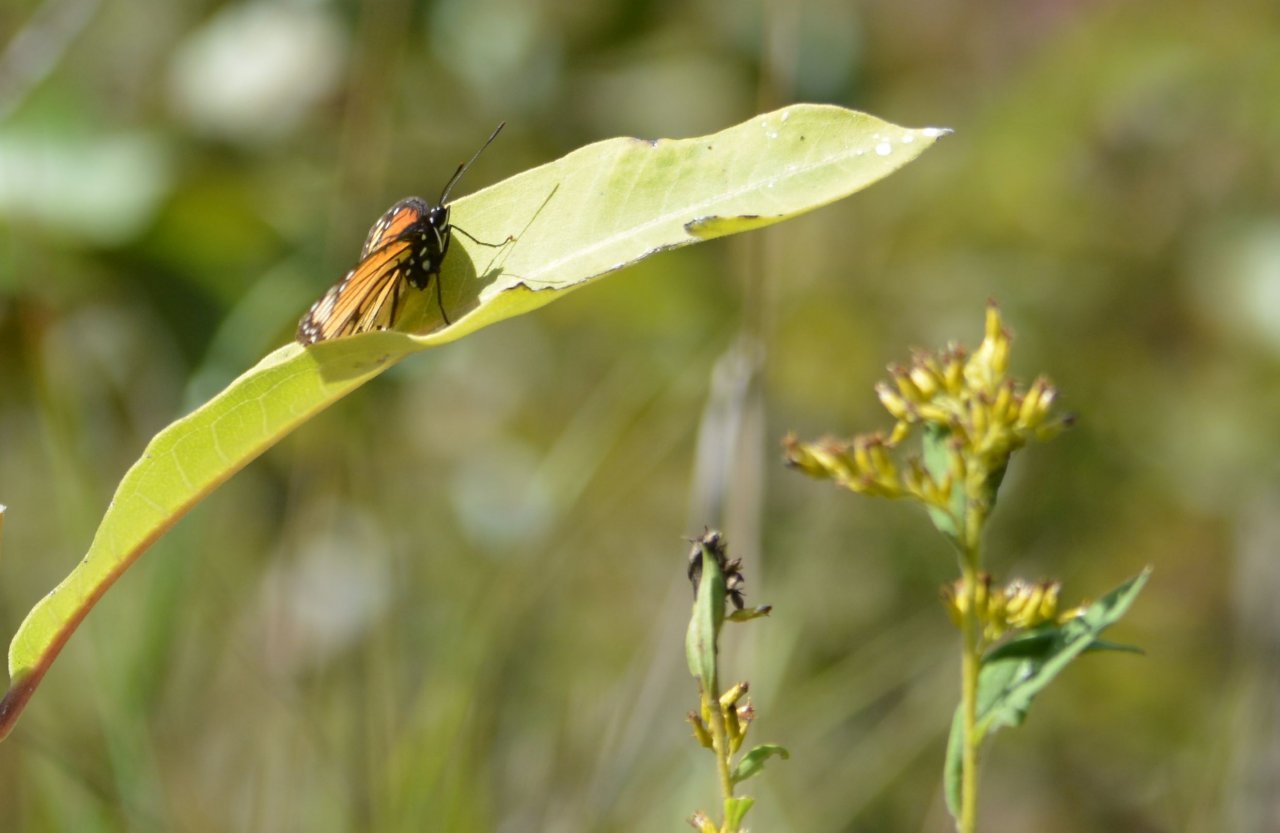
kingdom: Animalia
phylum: Arthropoda
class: Insecta
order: Lepidoptera
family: Nymphalidae
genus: Limenitis
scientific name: Limenitis archippus
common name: Viceroy
